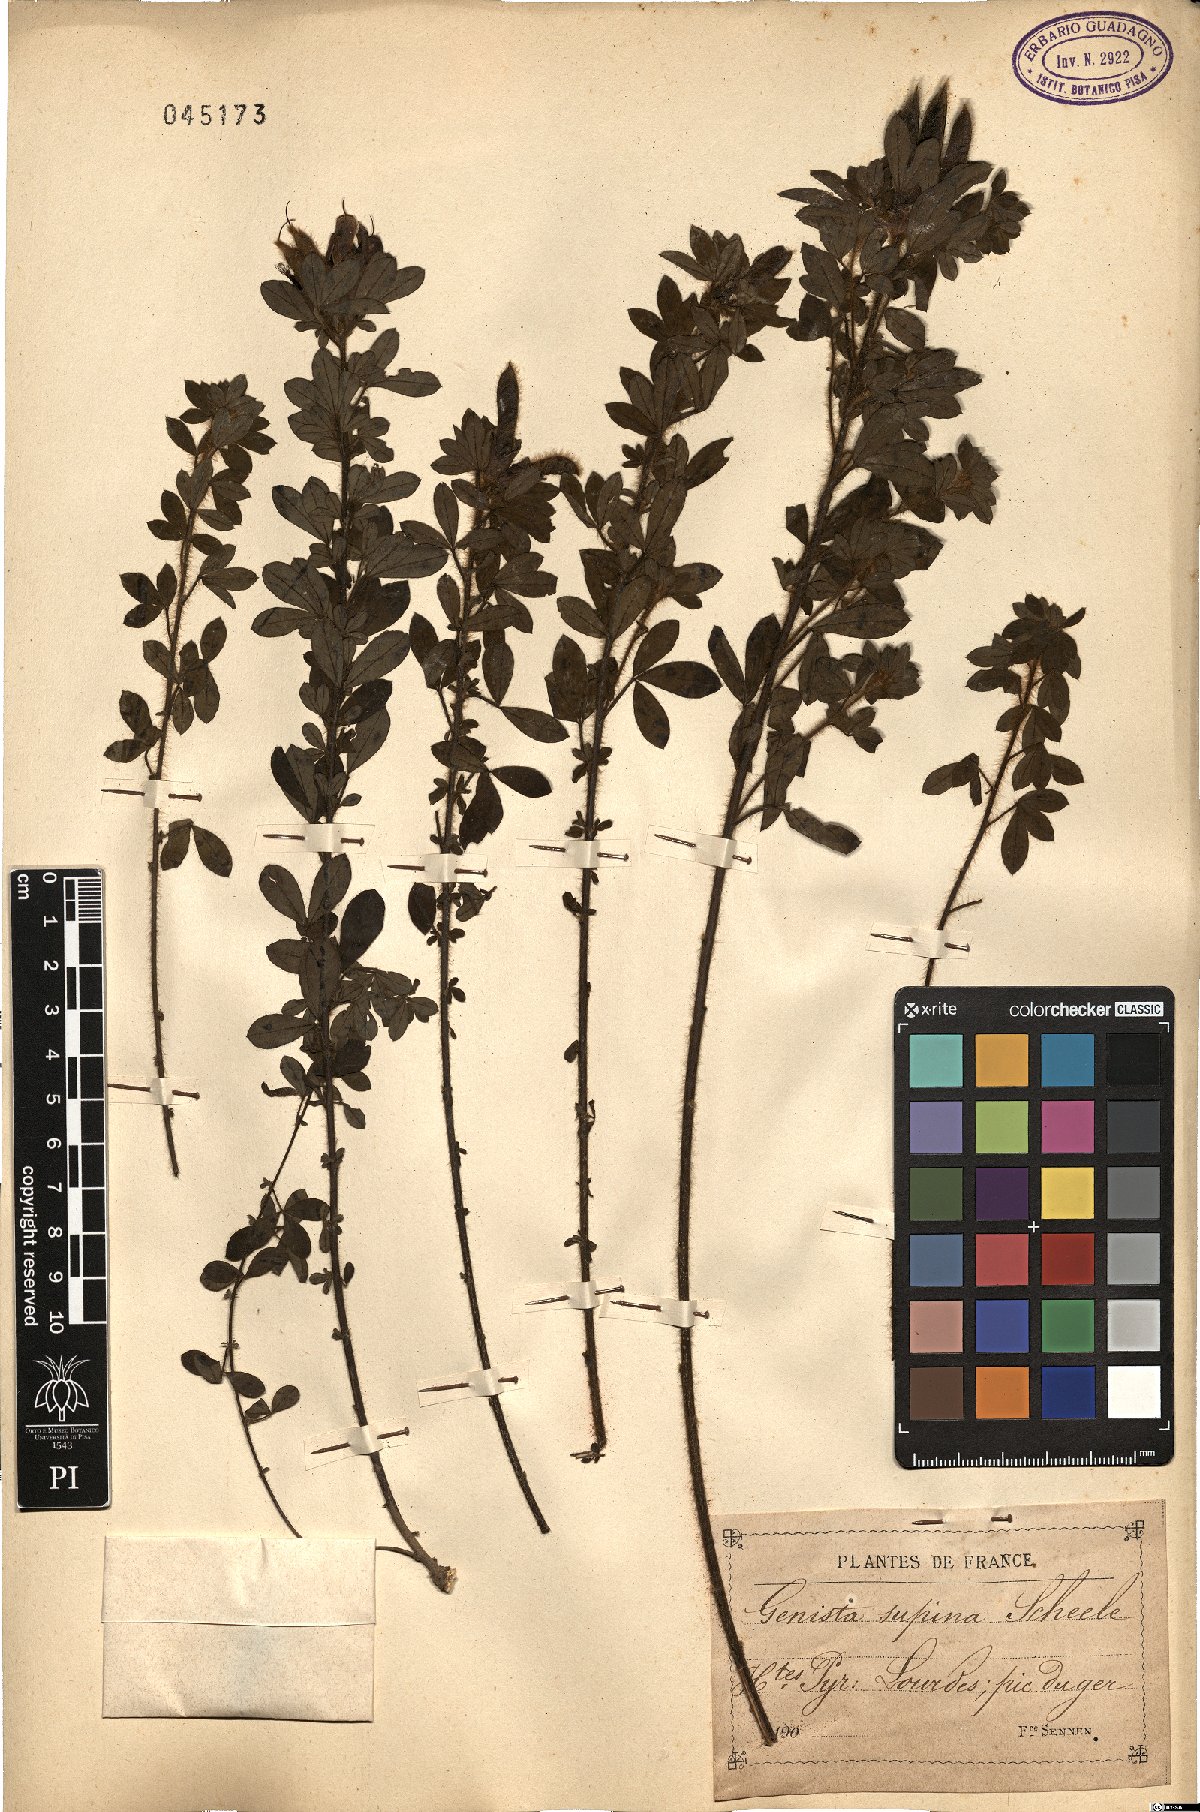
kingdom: Plantae
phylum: Tracheophyta
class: Magnoliopsida
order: Fabales
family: Fabaceae
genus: Chamaecytisus
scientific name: Chamaecytisus supinus
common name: Clustered broom
